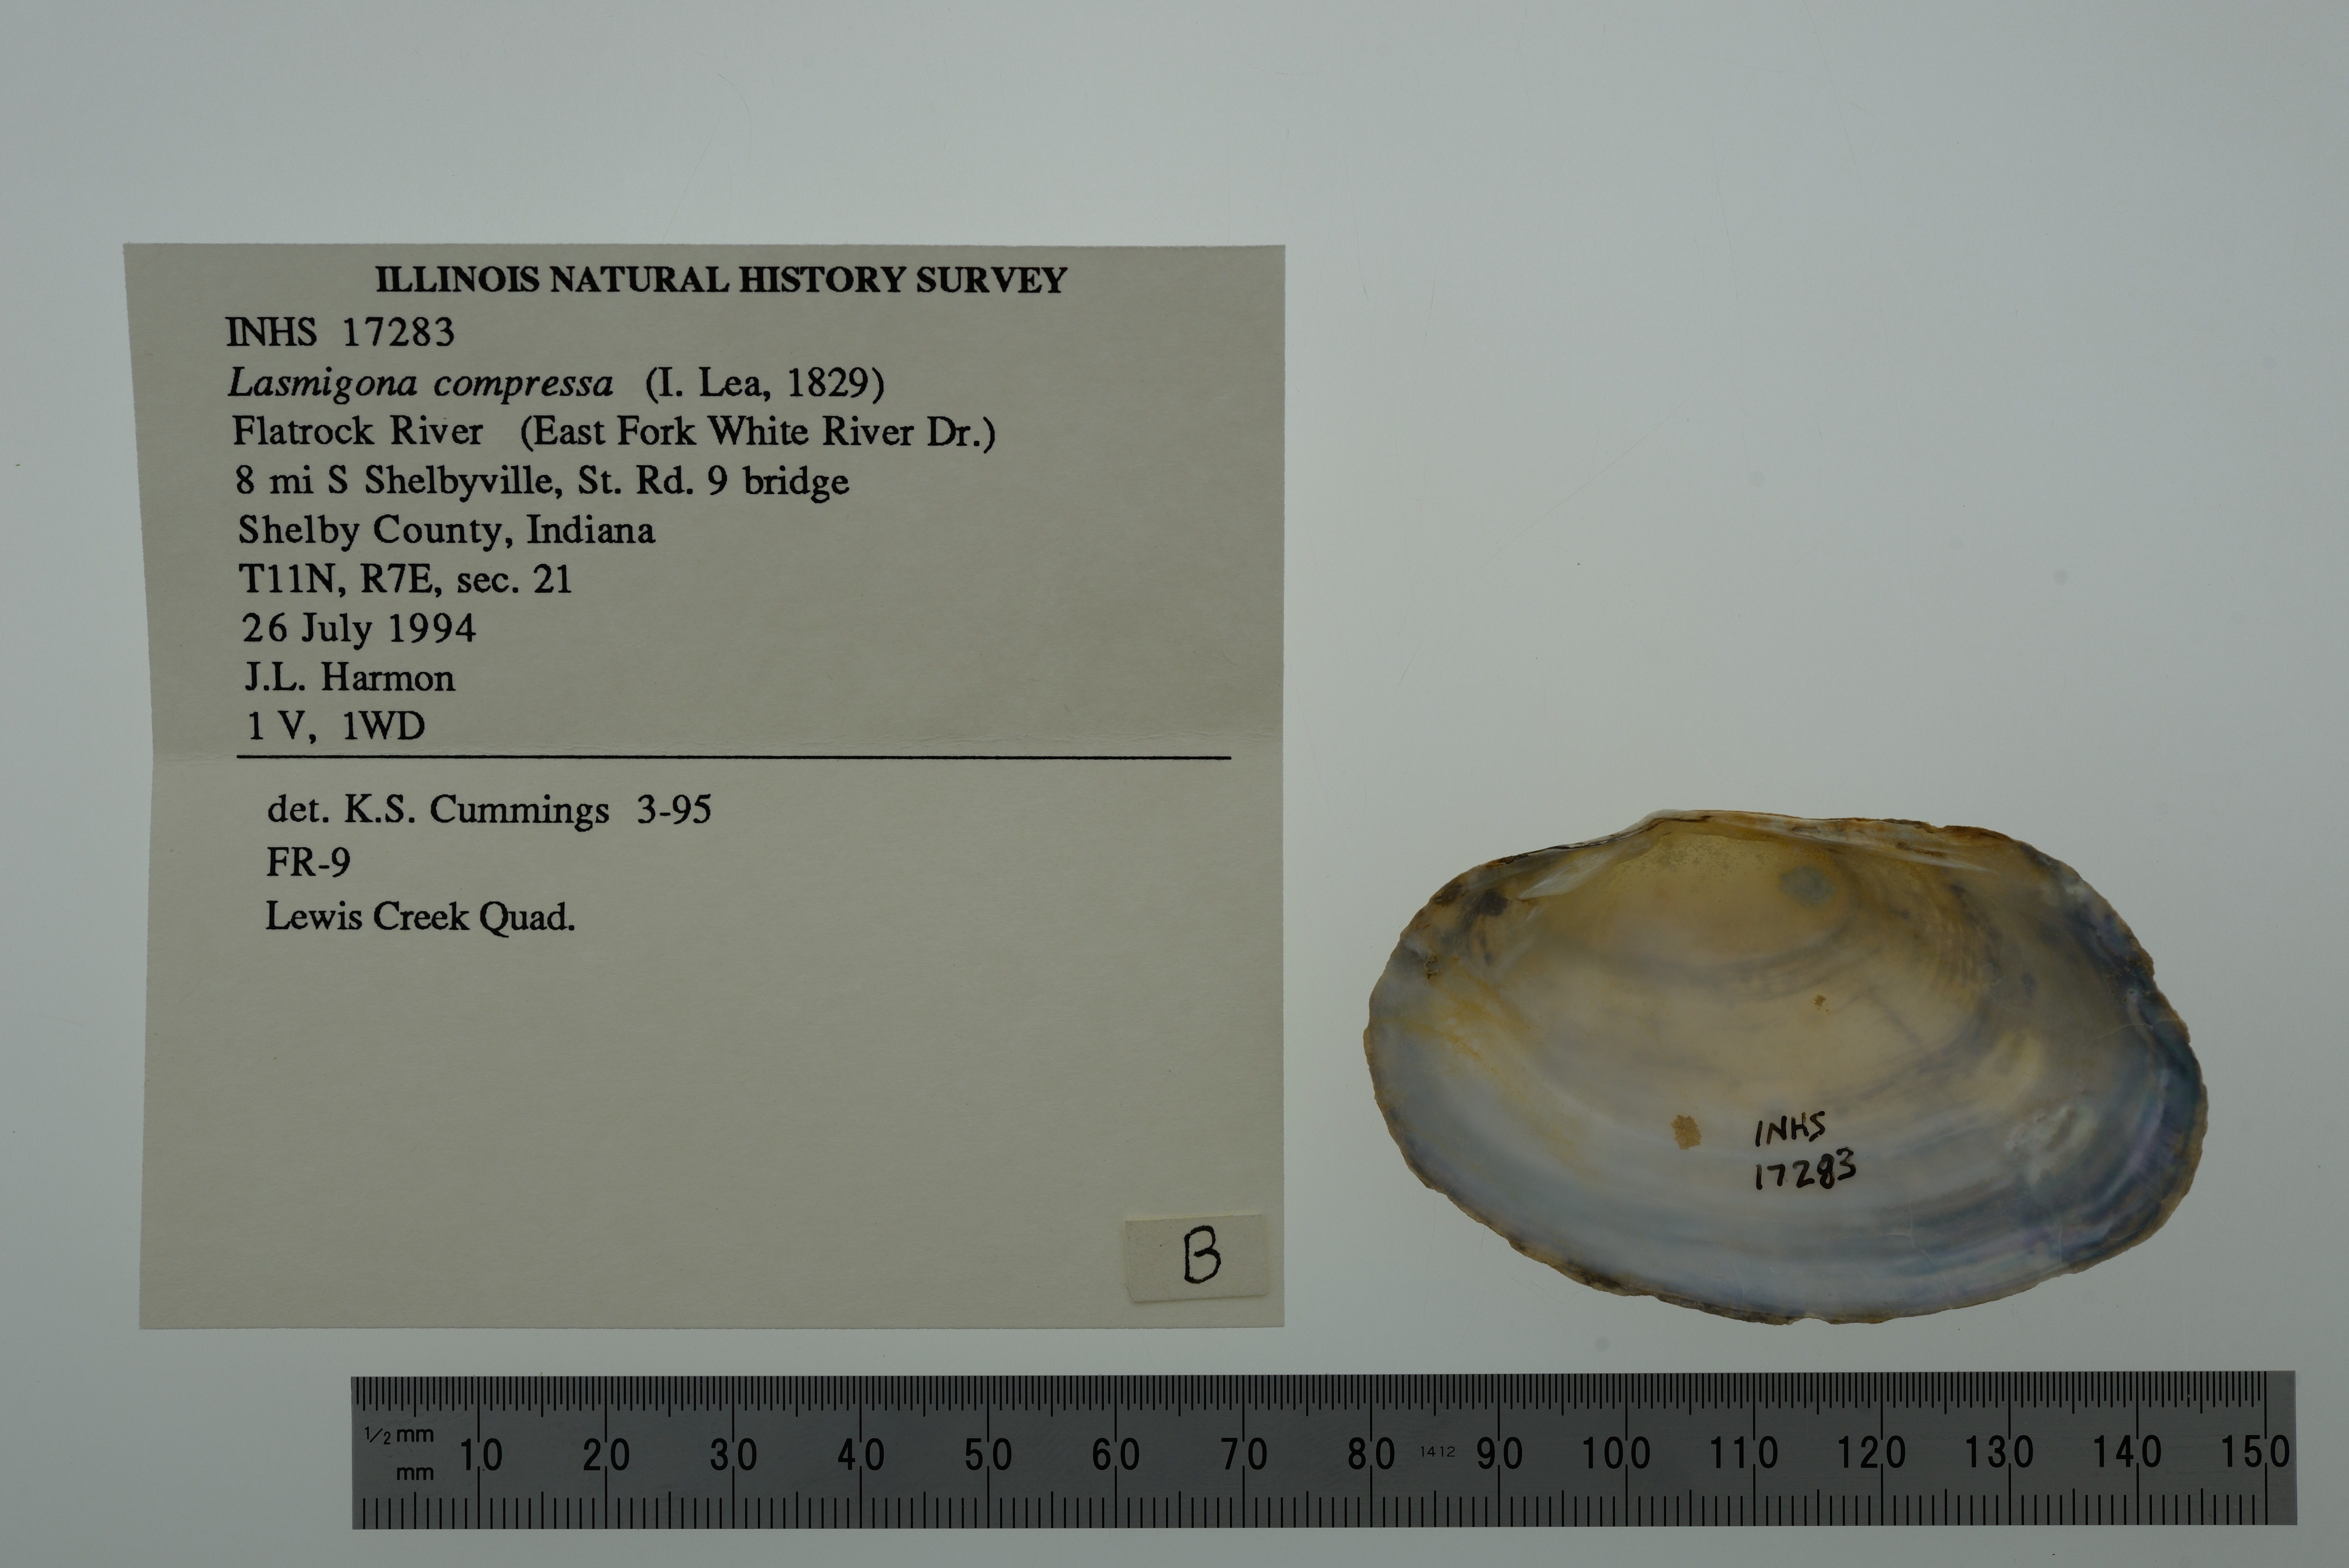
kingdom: Animalia
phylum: Mollusca
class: Bivalvia
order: Unionida
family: Unionidae
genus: Lasmigona
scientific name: Lasmigona compressa
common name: Creek heelsplitter
